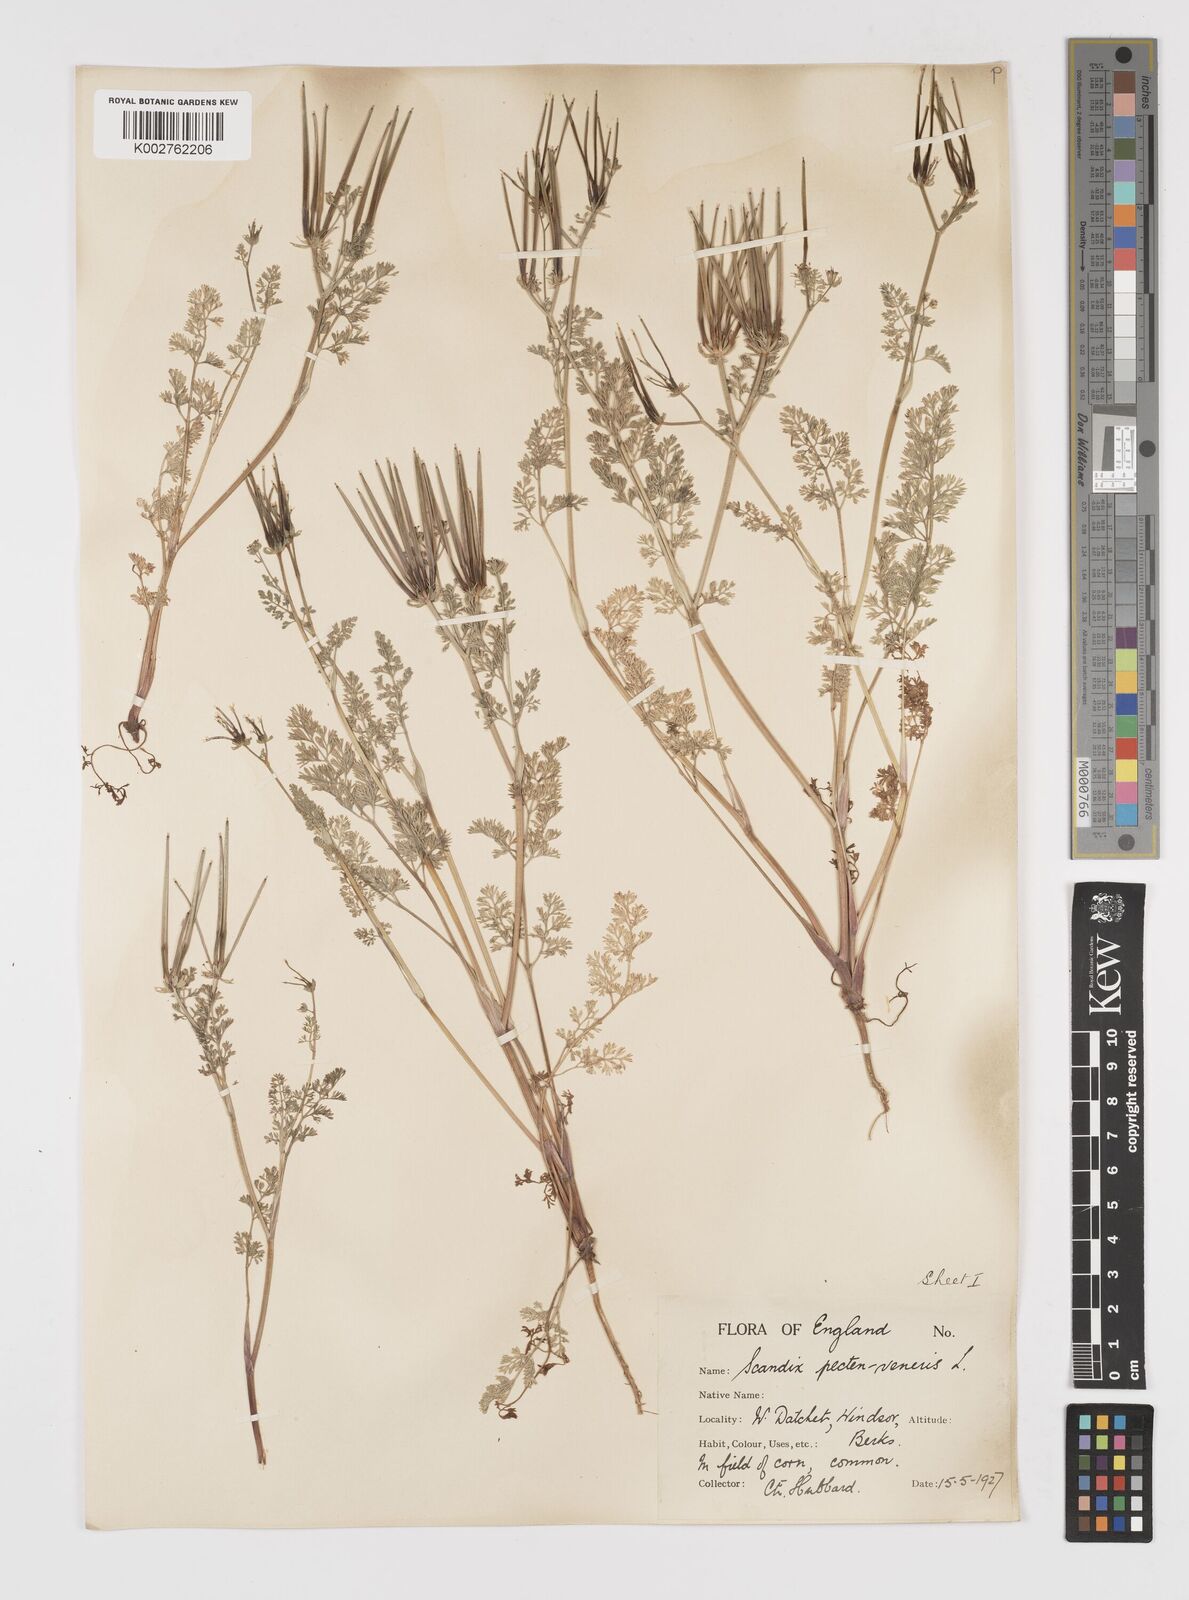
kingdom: Plantae
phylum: Tracheophyta
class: Magnoliopsida
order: Apiales
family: Apiaceae
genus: Scandix
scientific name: Scandix pecten-veneris
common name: Shepherd's-needle
